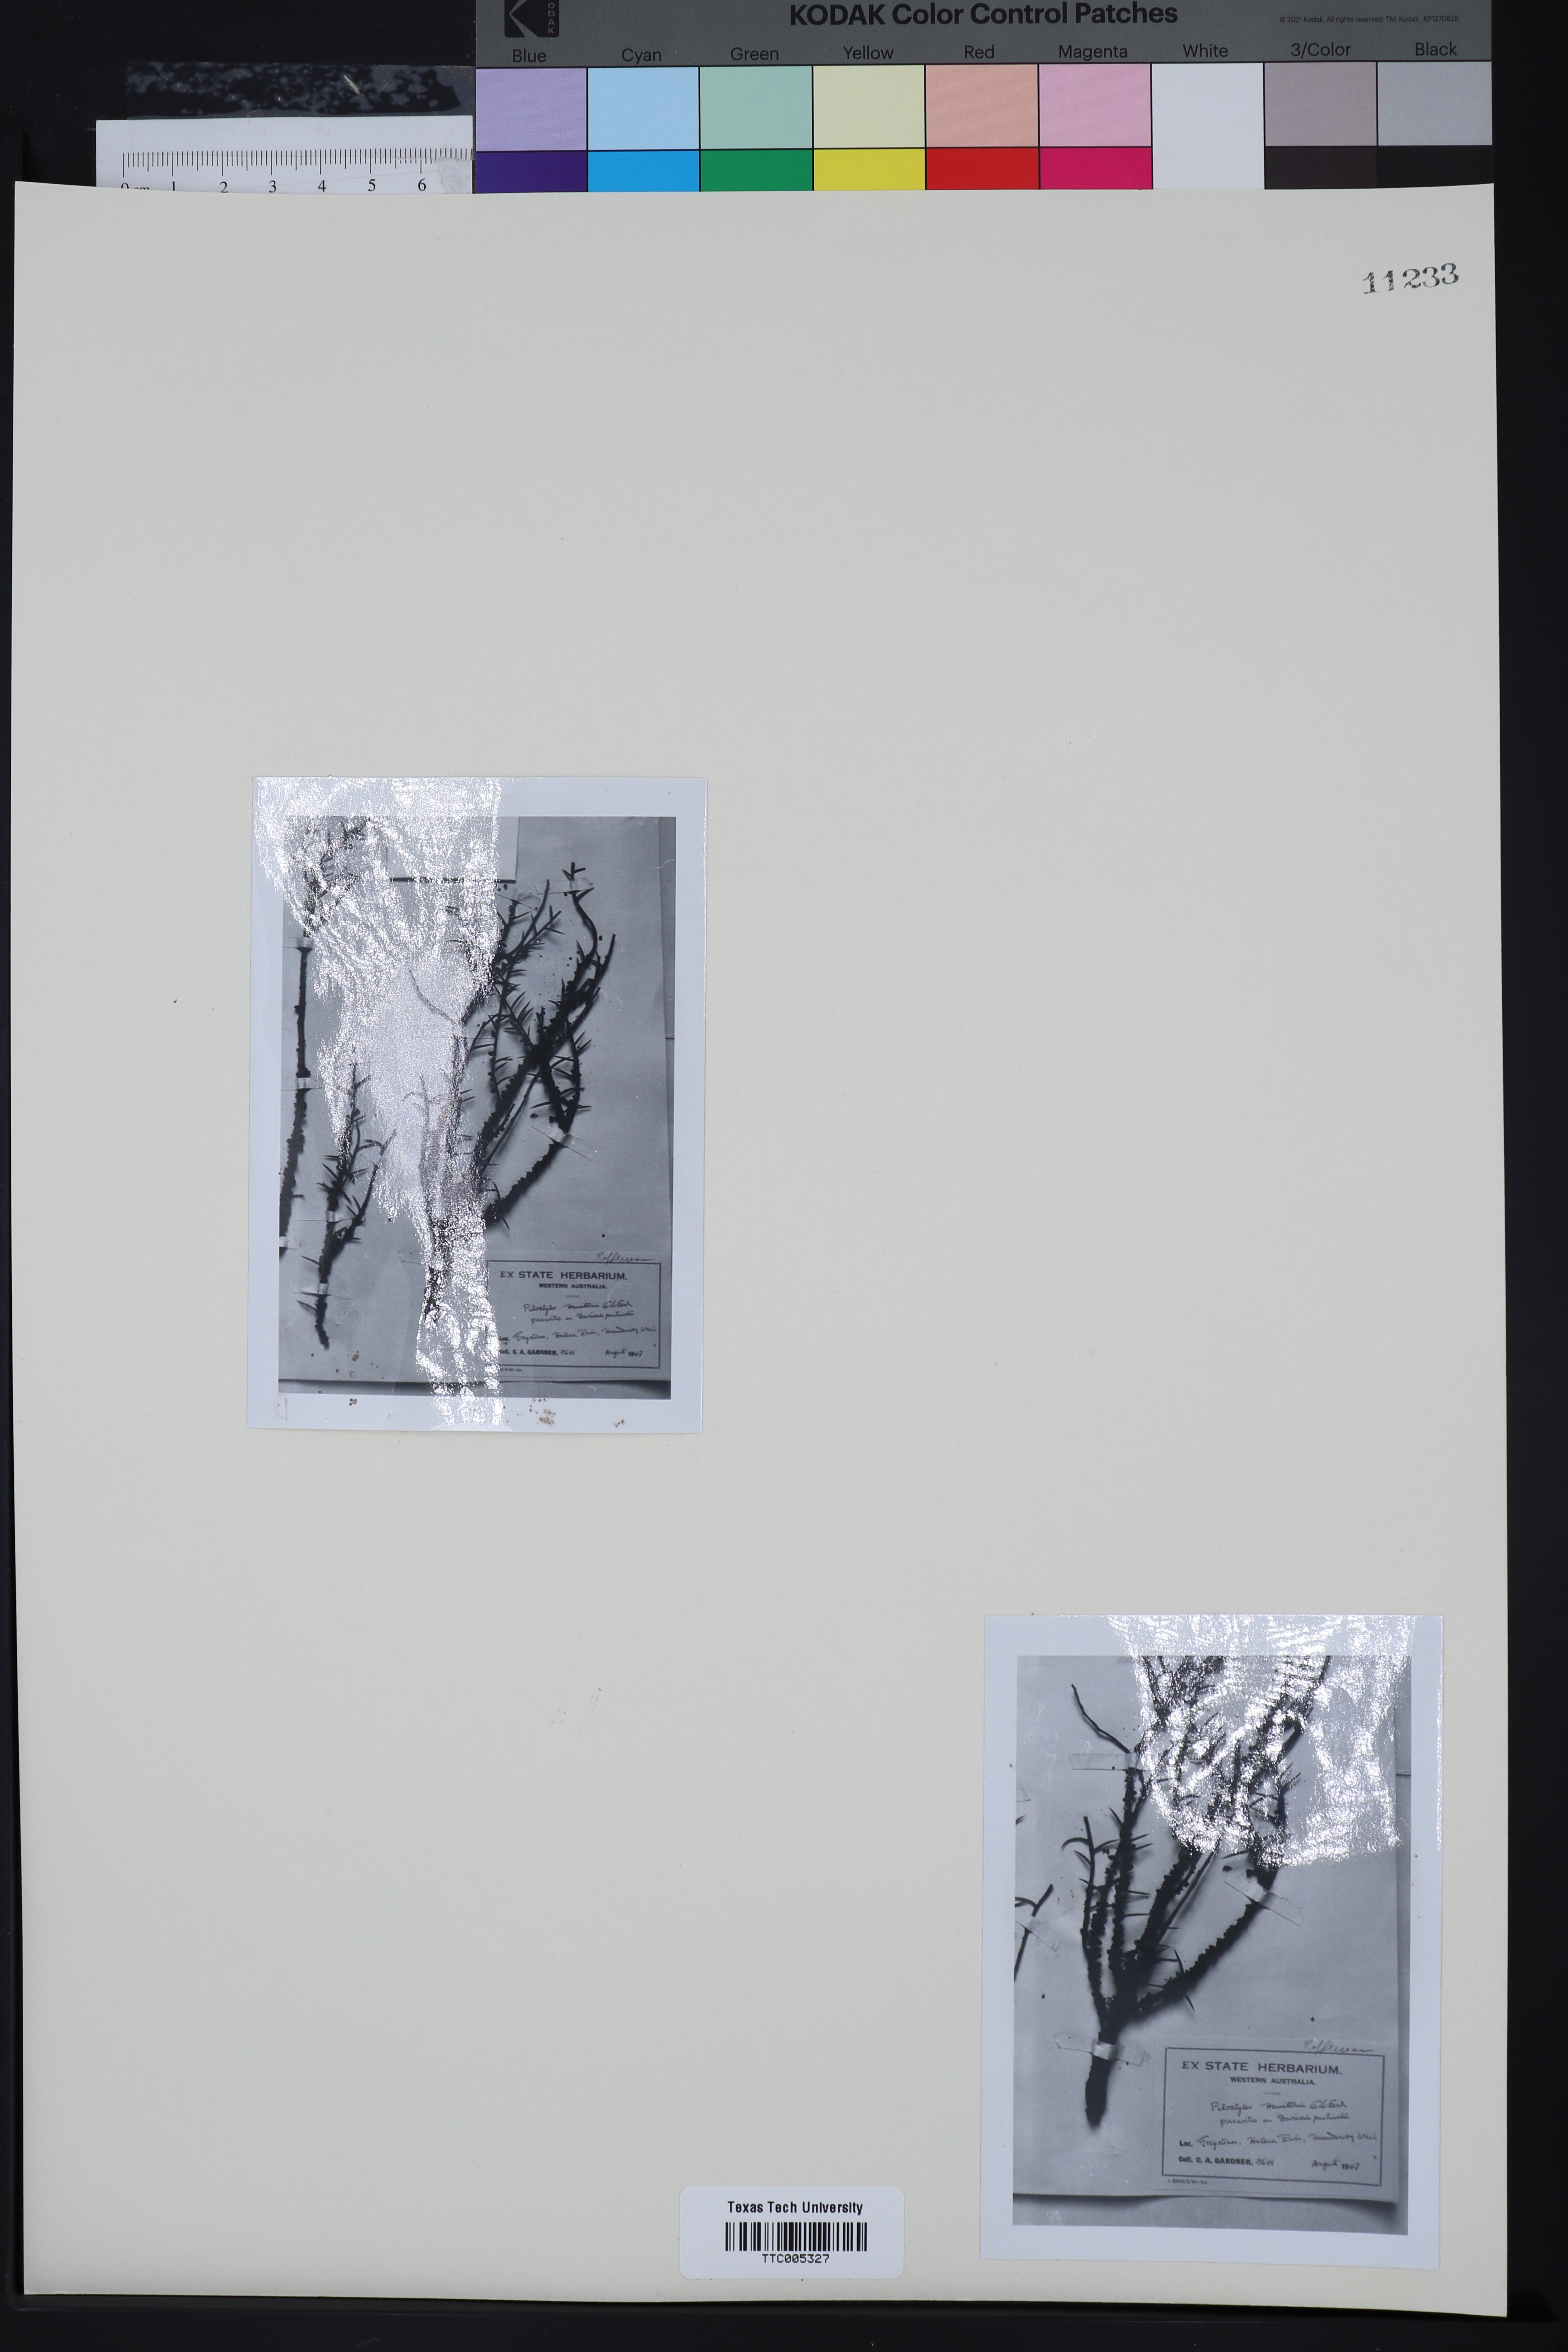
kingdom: Plantae
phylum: Tracheophyta
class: Magnoliopsida
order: Cucurbitales
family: Apodanthaceae
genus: Pilostyles
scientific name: Pilostyles hamiltonii
